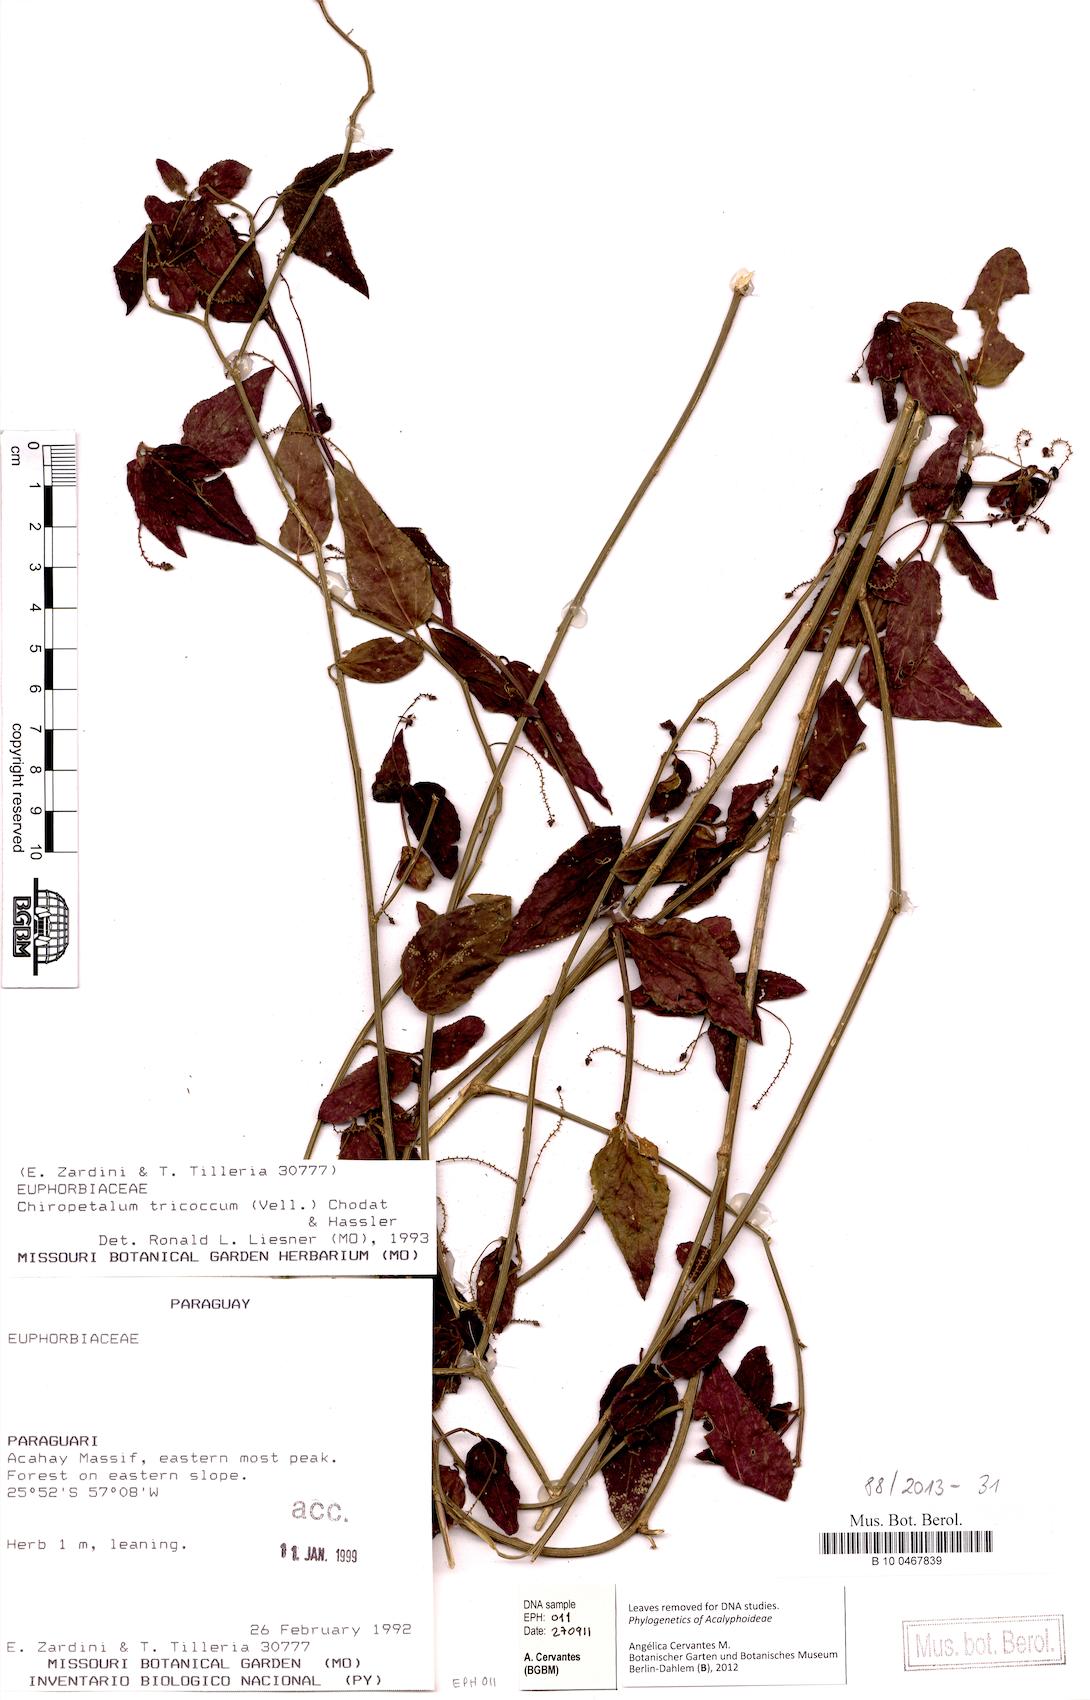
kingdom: Plantae
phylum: Tracheophyta
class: Magnoliopsida
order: Malpighiales
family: Euphorbiaceae
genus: Chiropetalum
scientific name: Chiropetalum tricoccum
